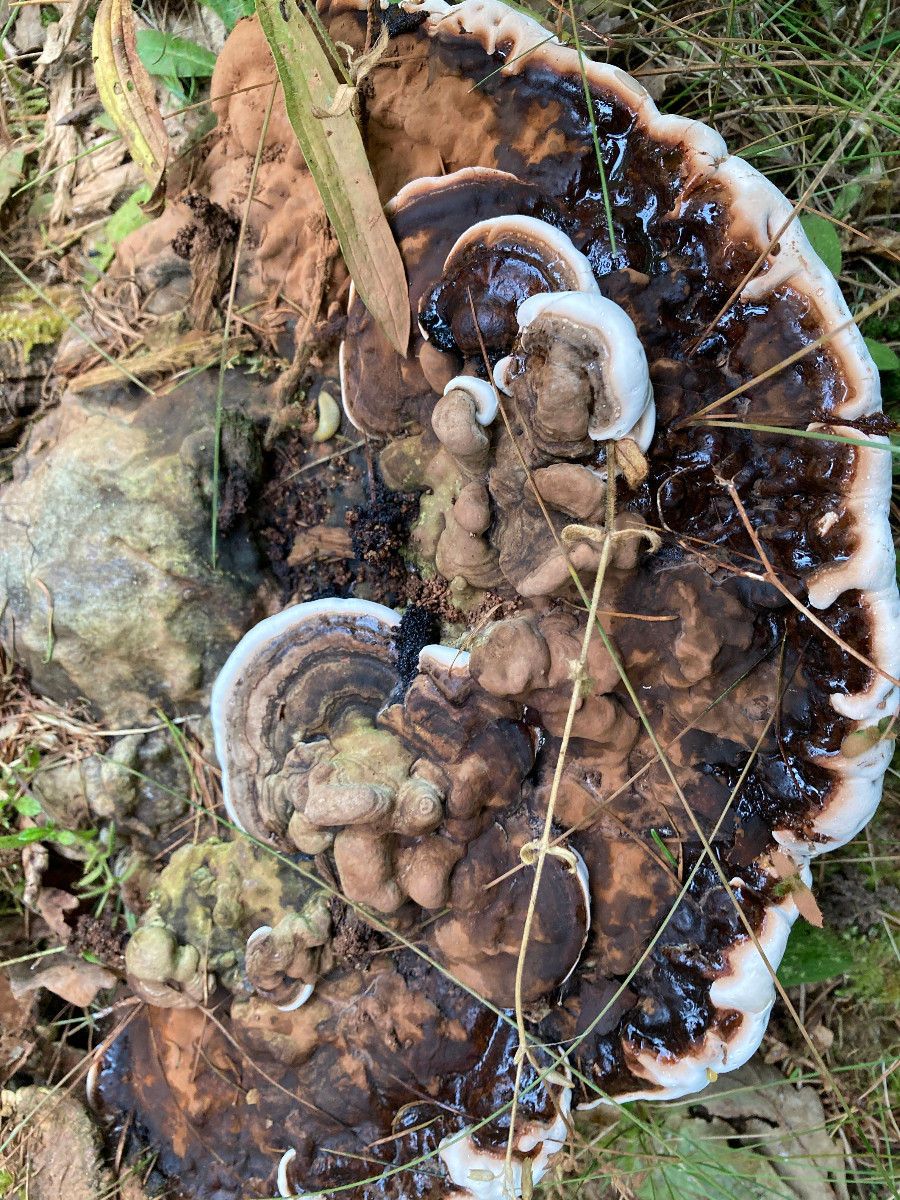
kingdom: Fungi
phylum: Basidiomycota
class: Agaricomycetes
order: Polyporales
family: Polyporaceae
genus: Ganoderma
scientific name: Ganoderma applanatum
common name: flad lakporesvamp
